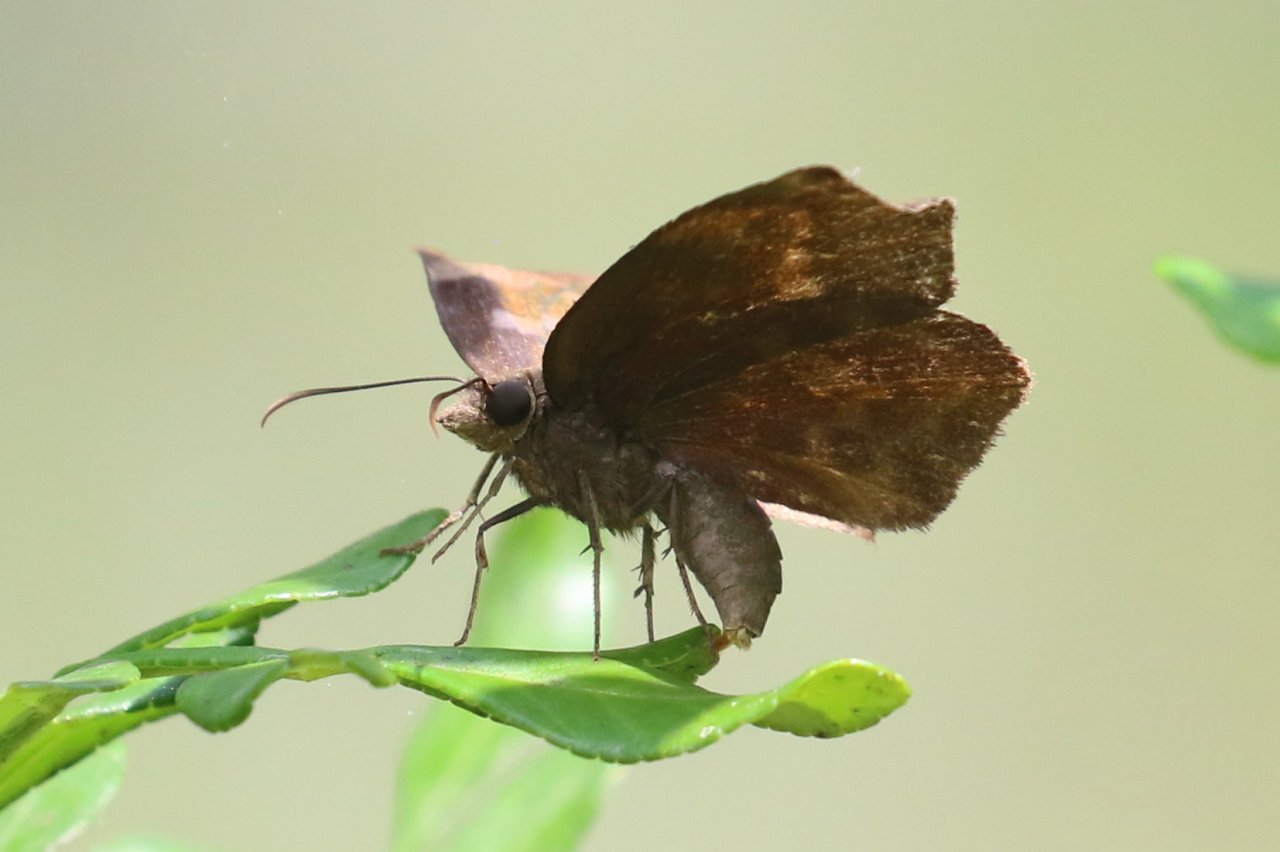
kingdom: Animalia
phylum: Arthropoda
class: Insecta
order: Lepidoptera
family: Hesperiidae
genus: Achlyodes
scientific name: Achlyodes thraso
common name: Sickle-winged Skipper
